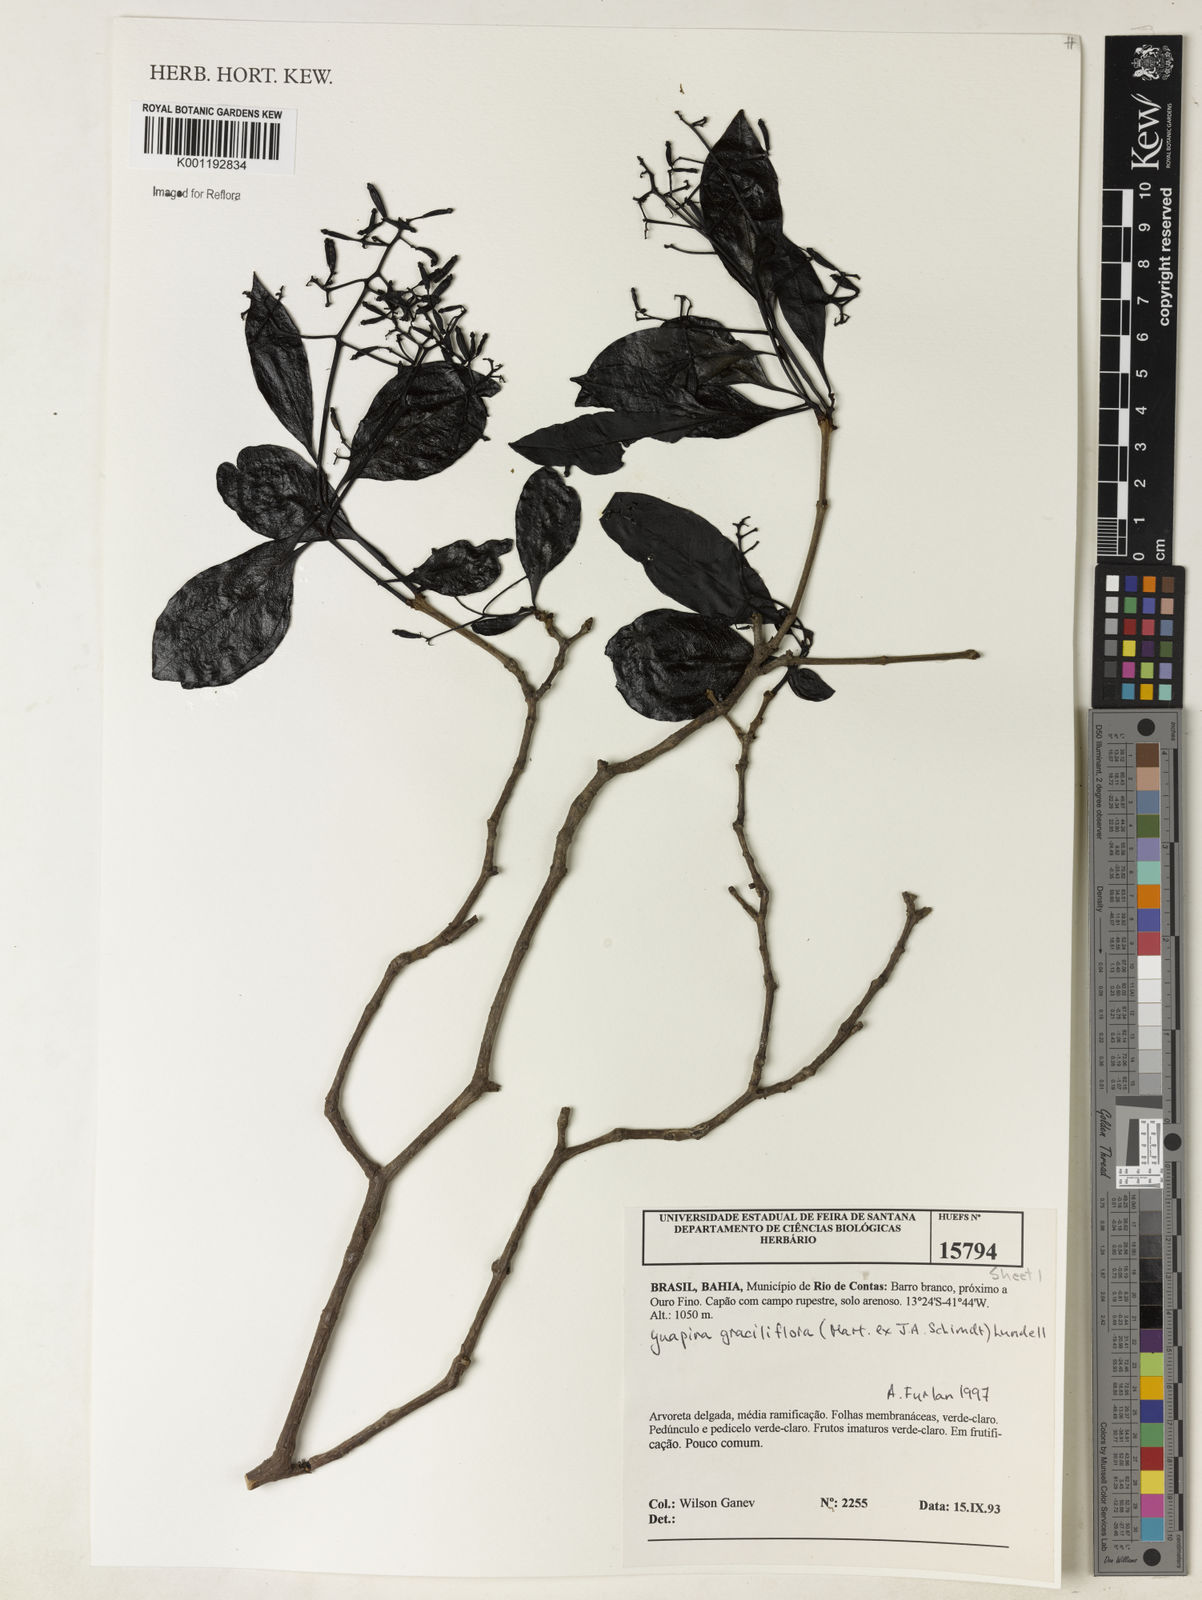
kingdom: Plantae
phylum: Tracheophyta
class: Magnoliopsida
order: Caryophyllales
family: Nyctaginaceae
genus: Guapira
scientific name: Guapira graciliflora
